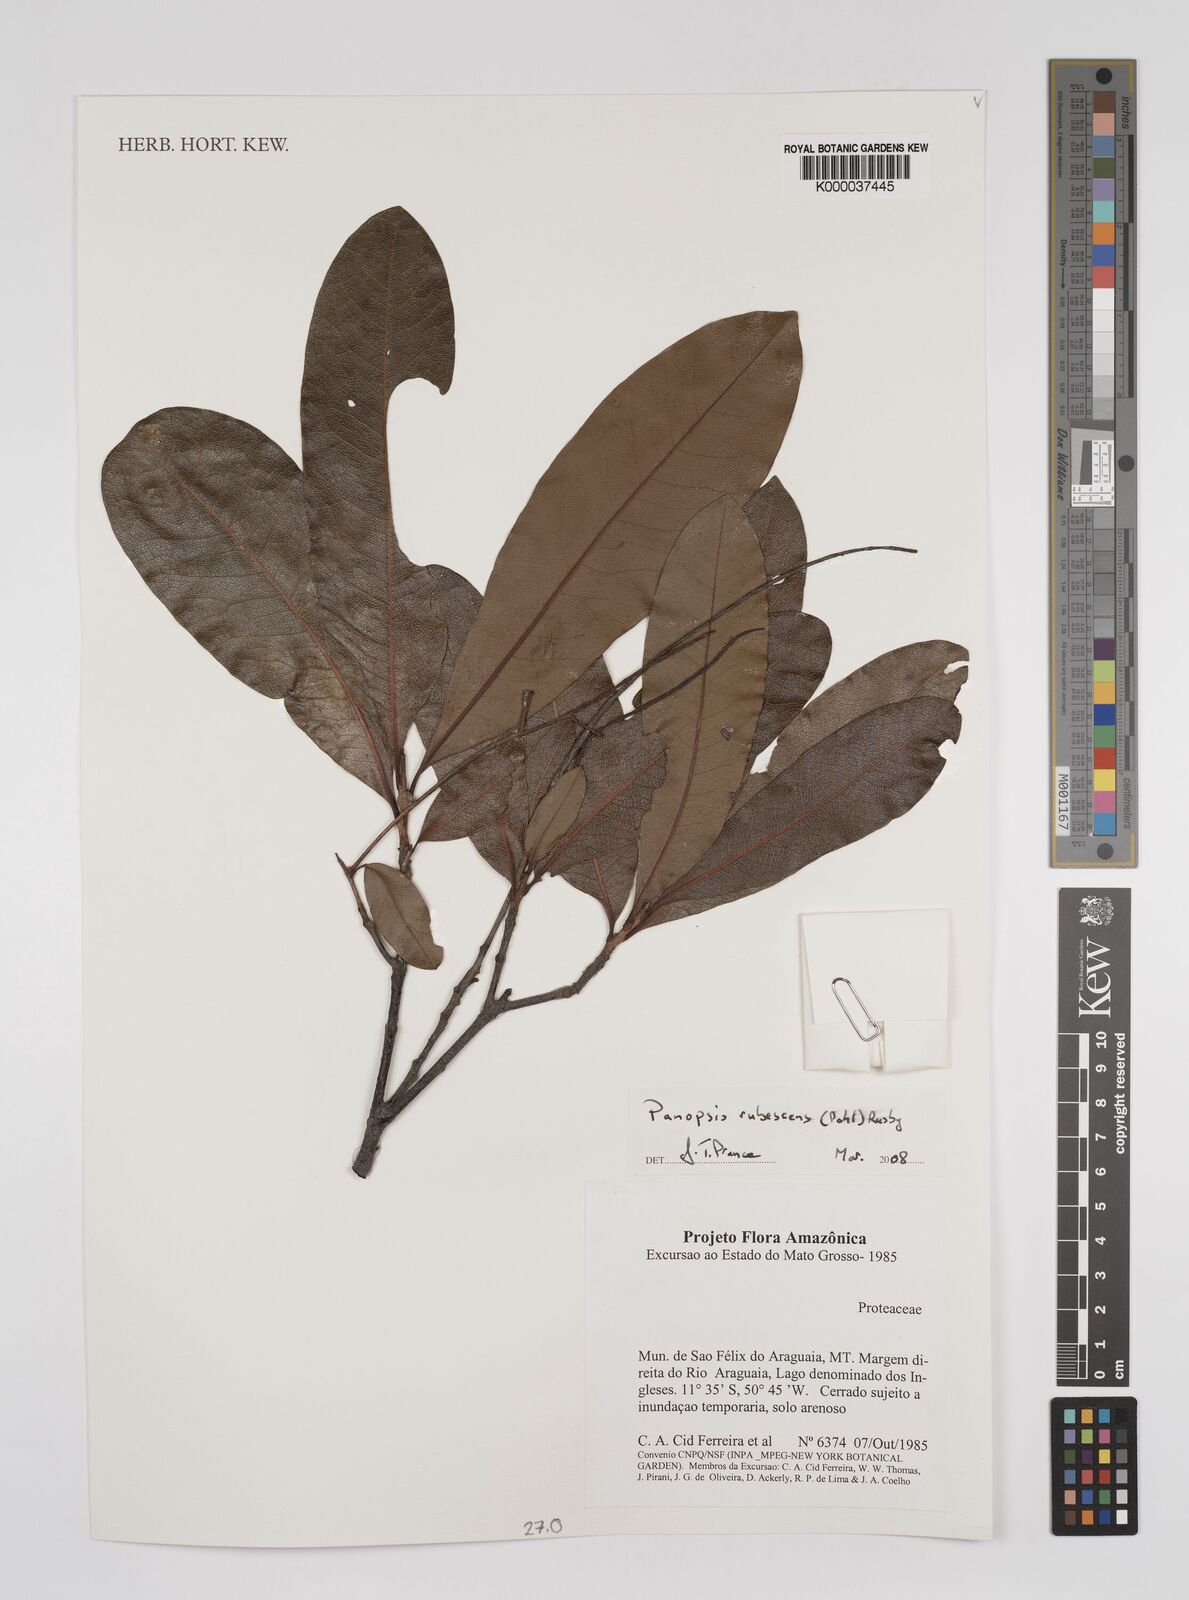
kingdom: Plantae
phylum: Tracheophyta
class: Magnoliopsida
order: Proteales
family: Proteaceae
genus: Panopsis
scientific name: Panopsis
